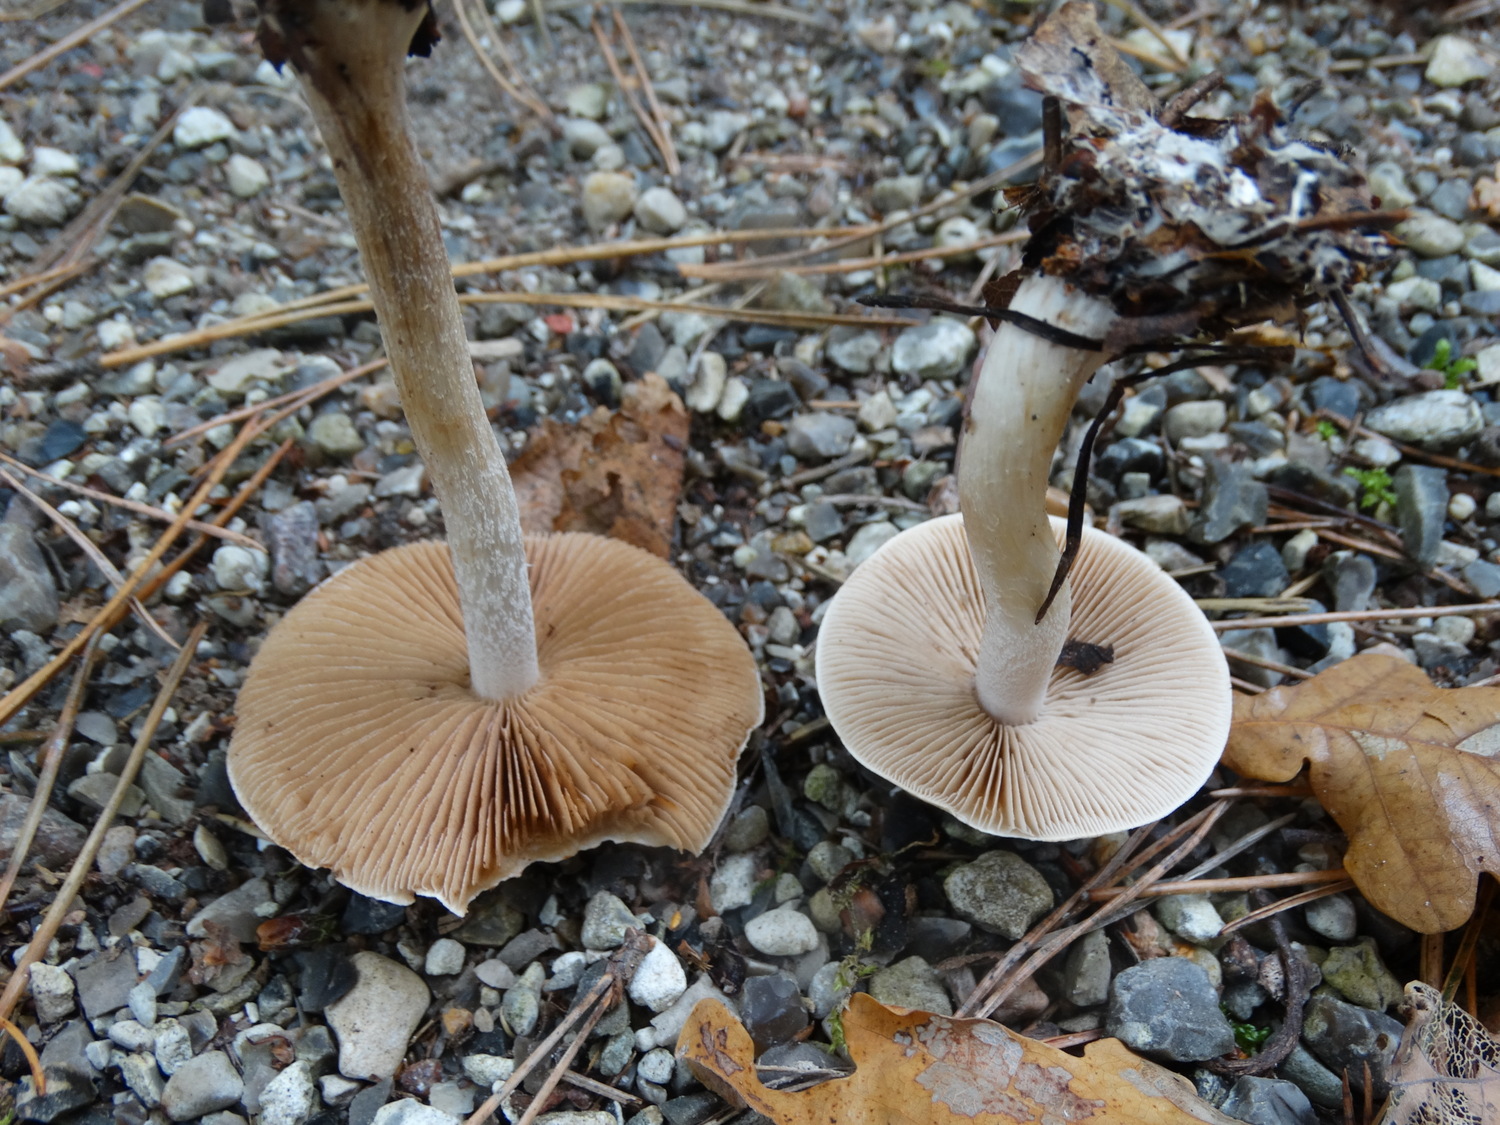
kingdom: Fungi
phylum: Basidiomycota
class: Agaricomycetes
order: Agaricales
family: Hymenogastraceae
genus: Hebeloma
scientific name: Hebeloma
